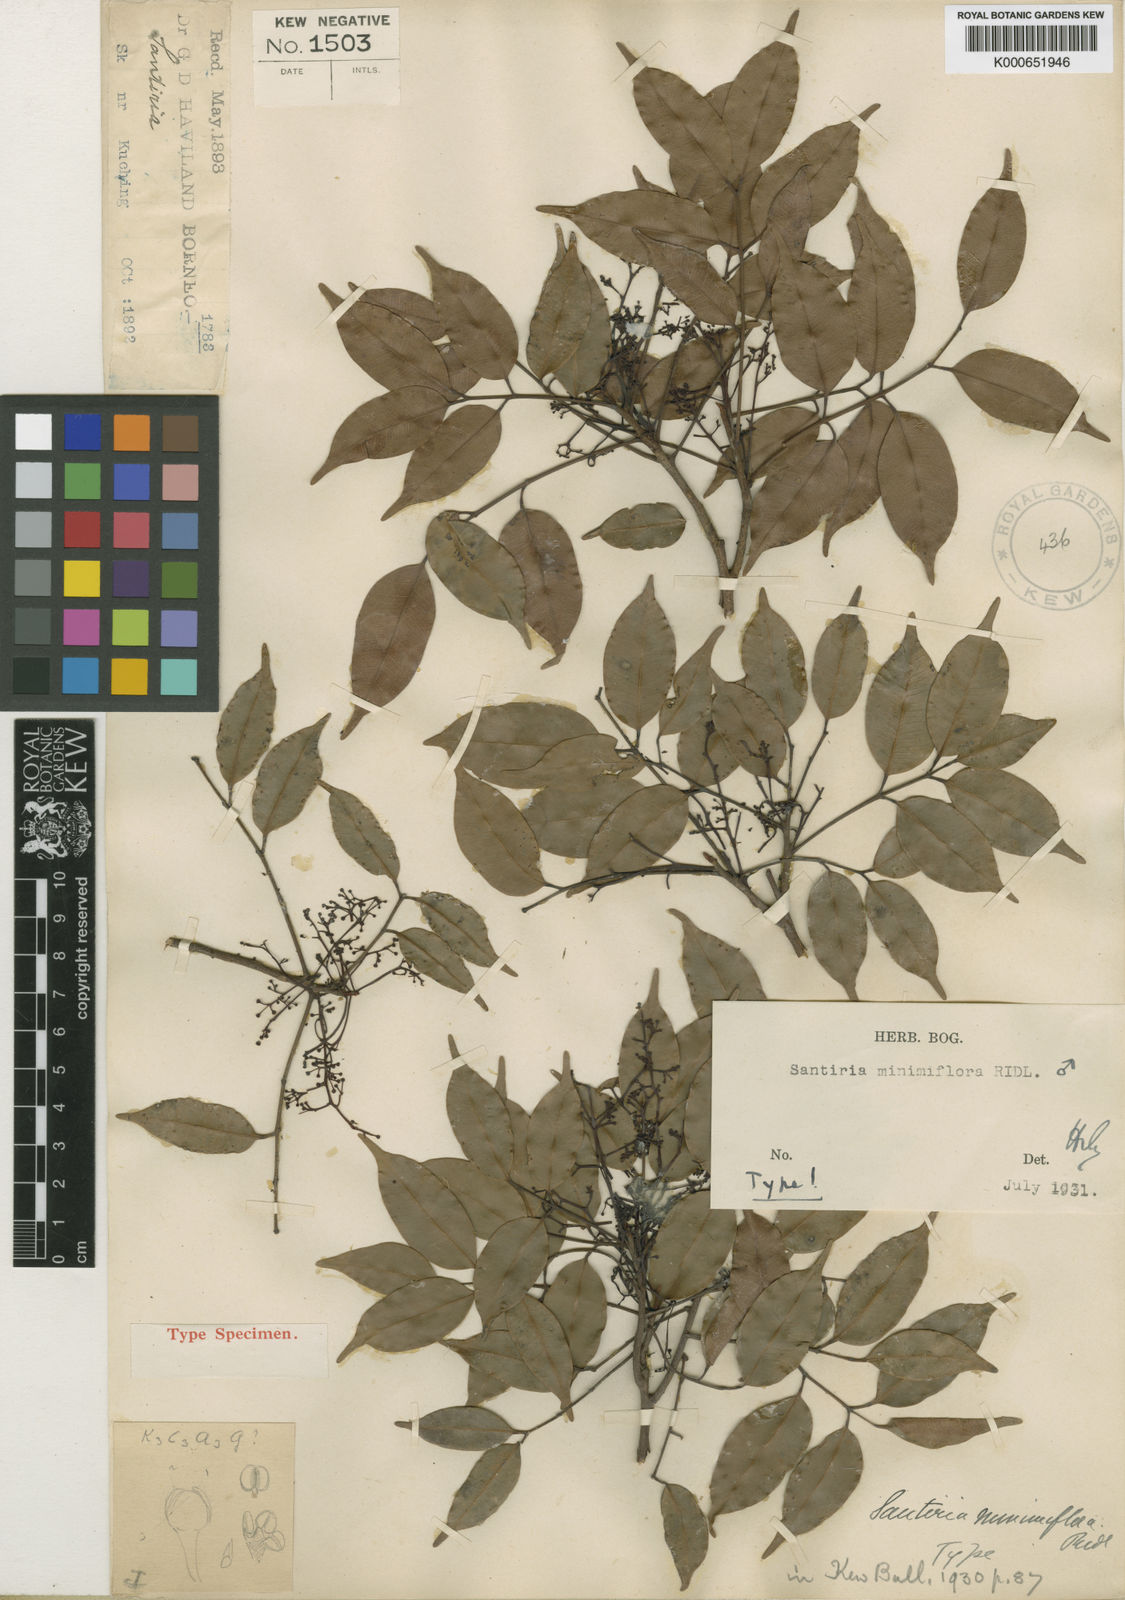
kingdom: Plantae
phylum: Tracheophyta
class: Magnoliopsida
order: Sapindales
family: Burseraceae
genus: Santiria
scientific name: Santiria rubiginosa
